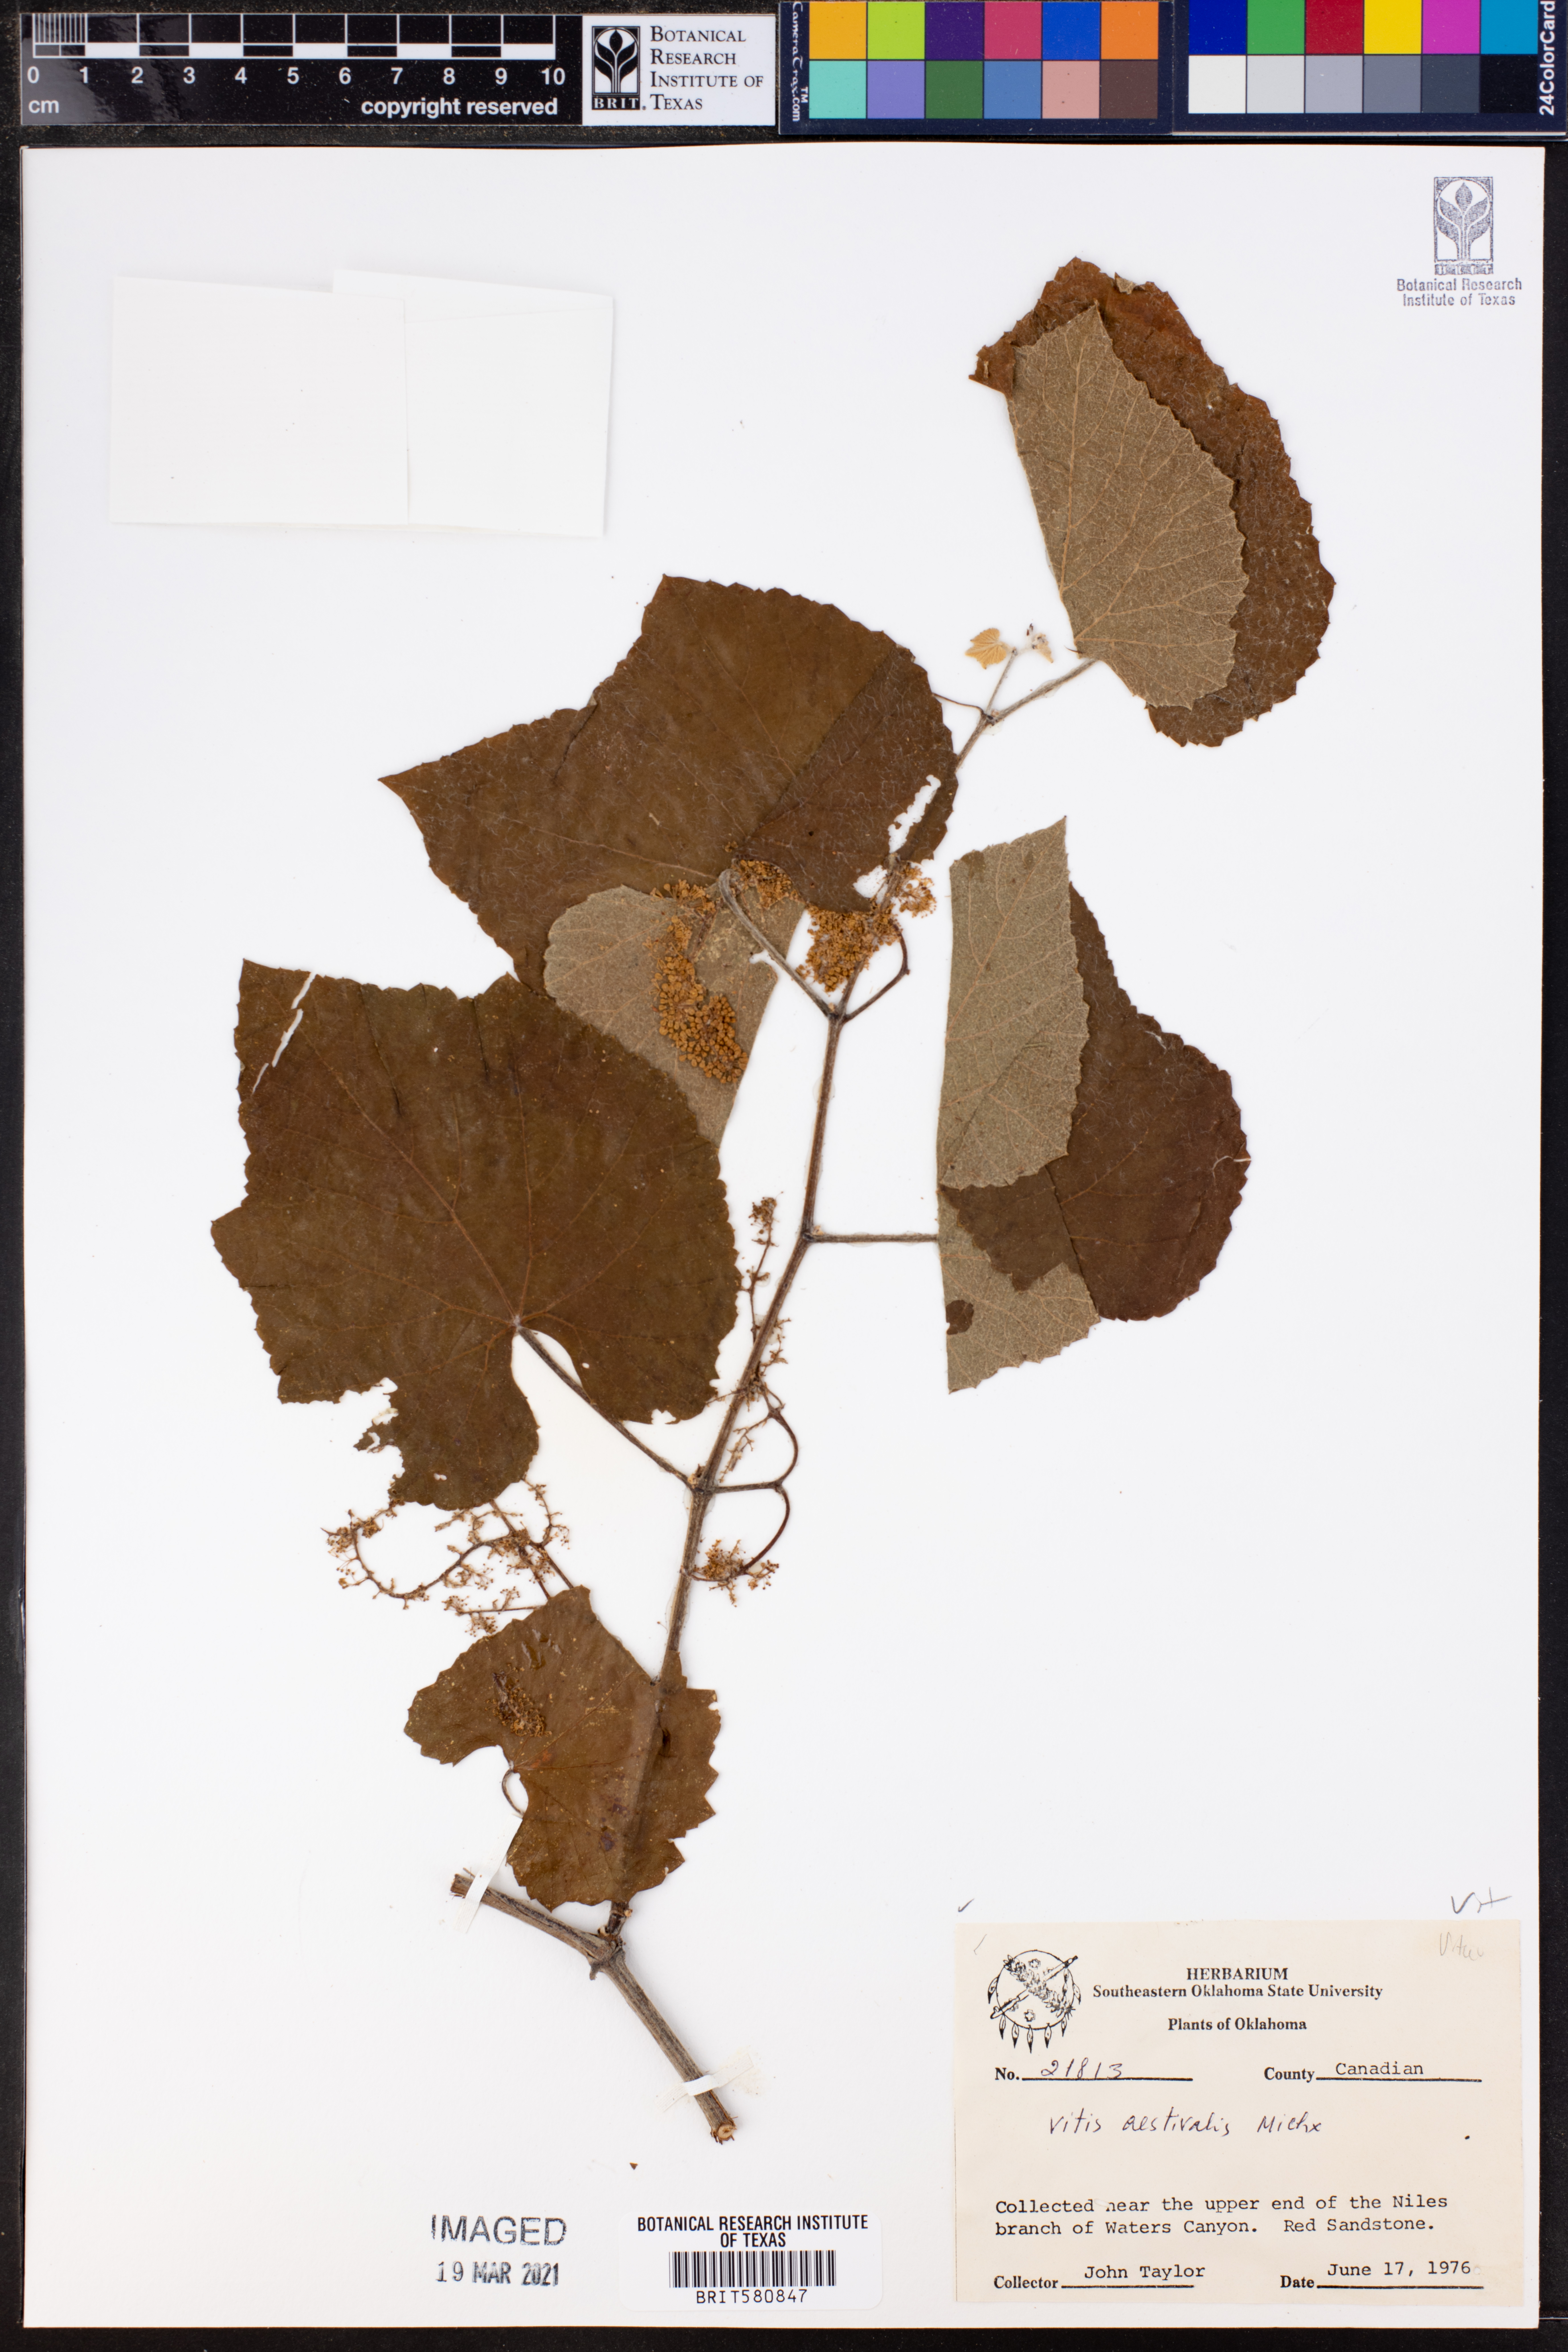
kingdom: Plantae
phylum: Tracheophyta
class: Magnoliopsida
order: Vitales
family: Vitaceae
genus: Vitis
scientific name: Vitis aestivalis
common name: Pigeon grape
